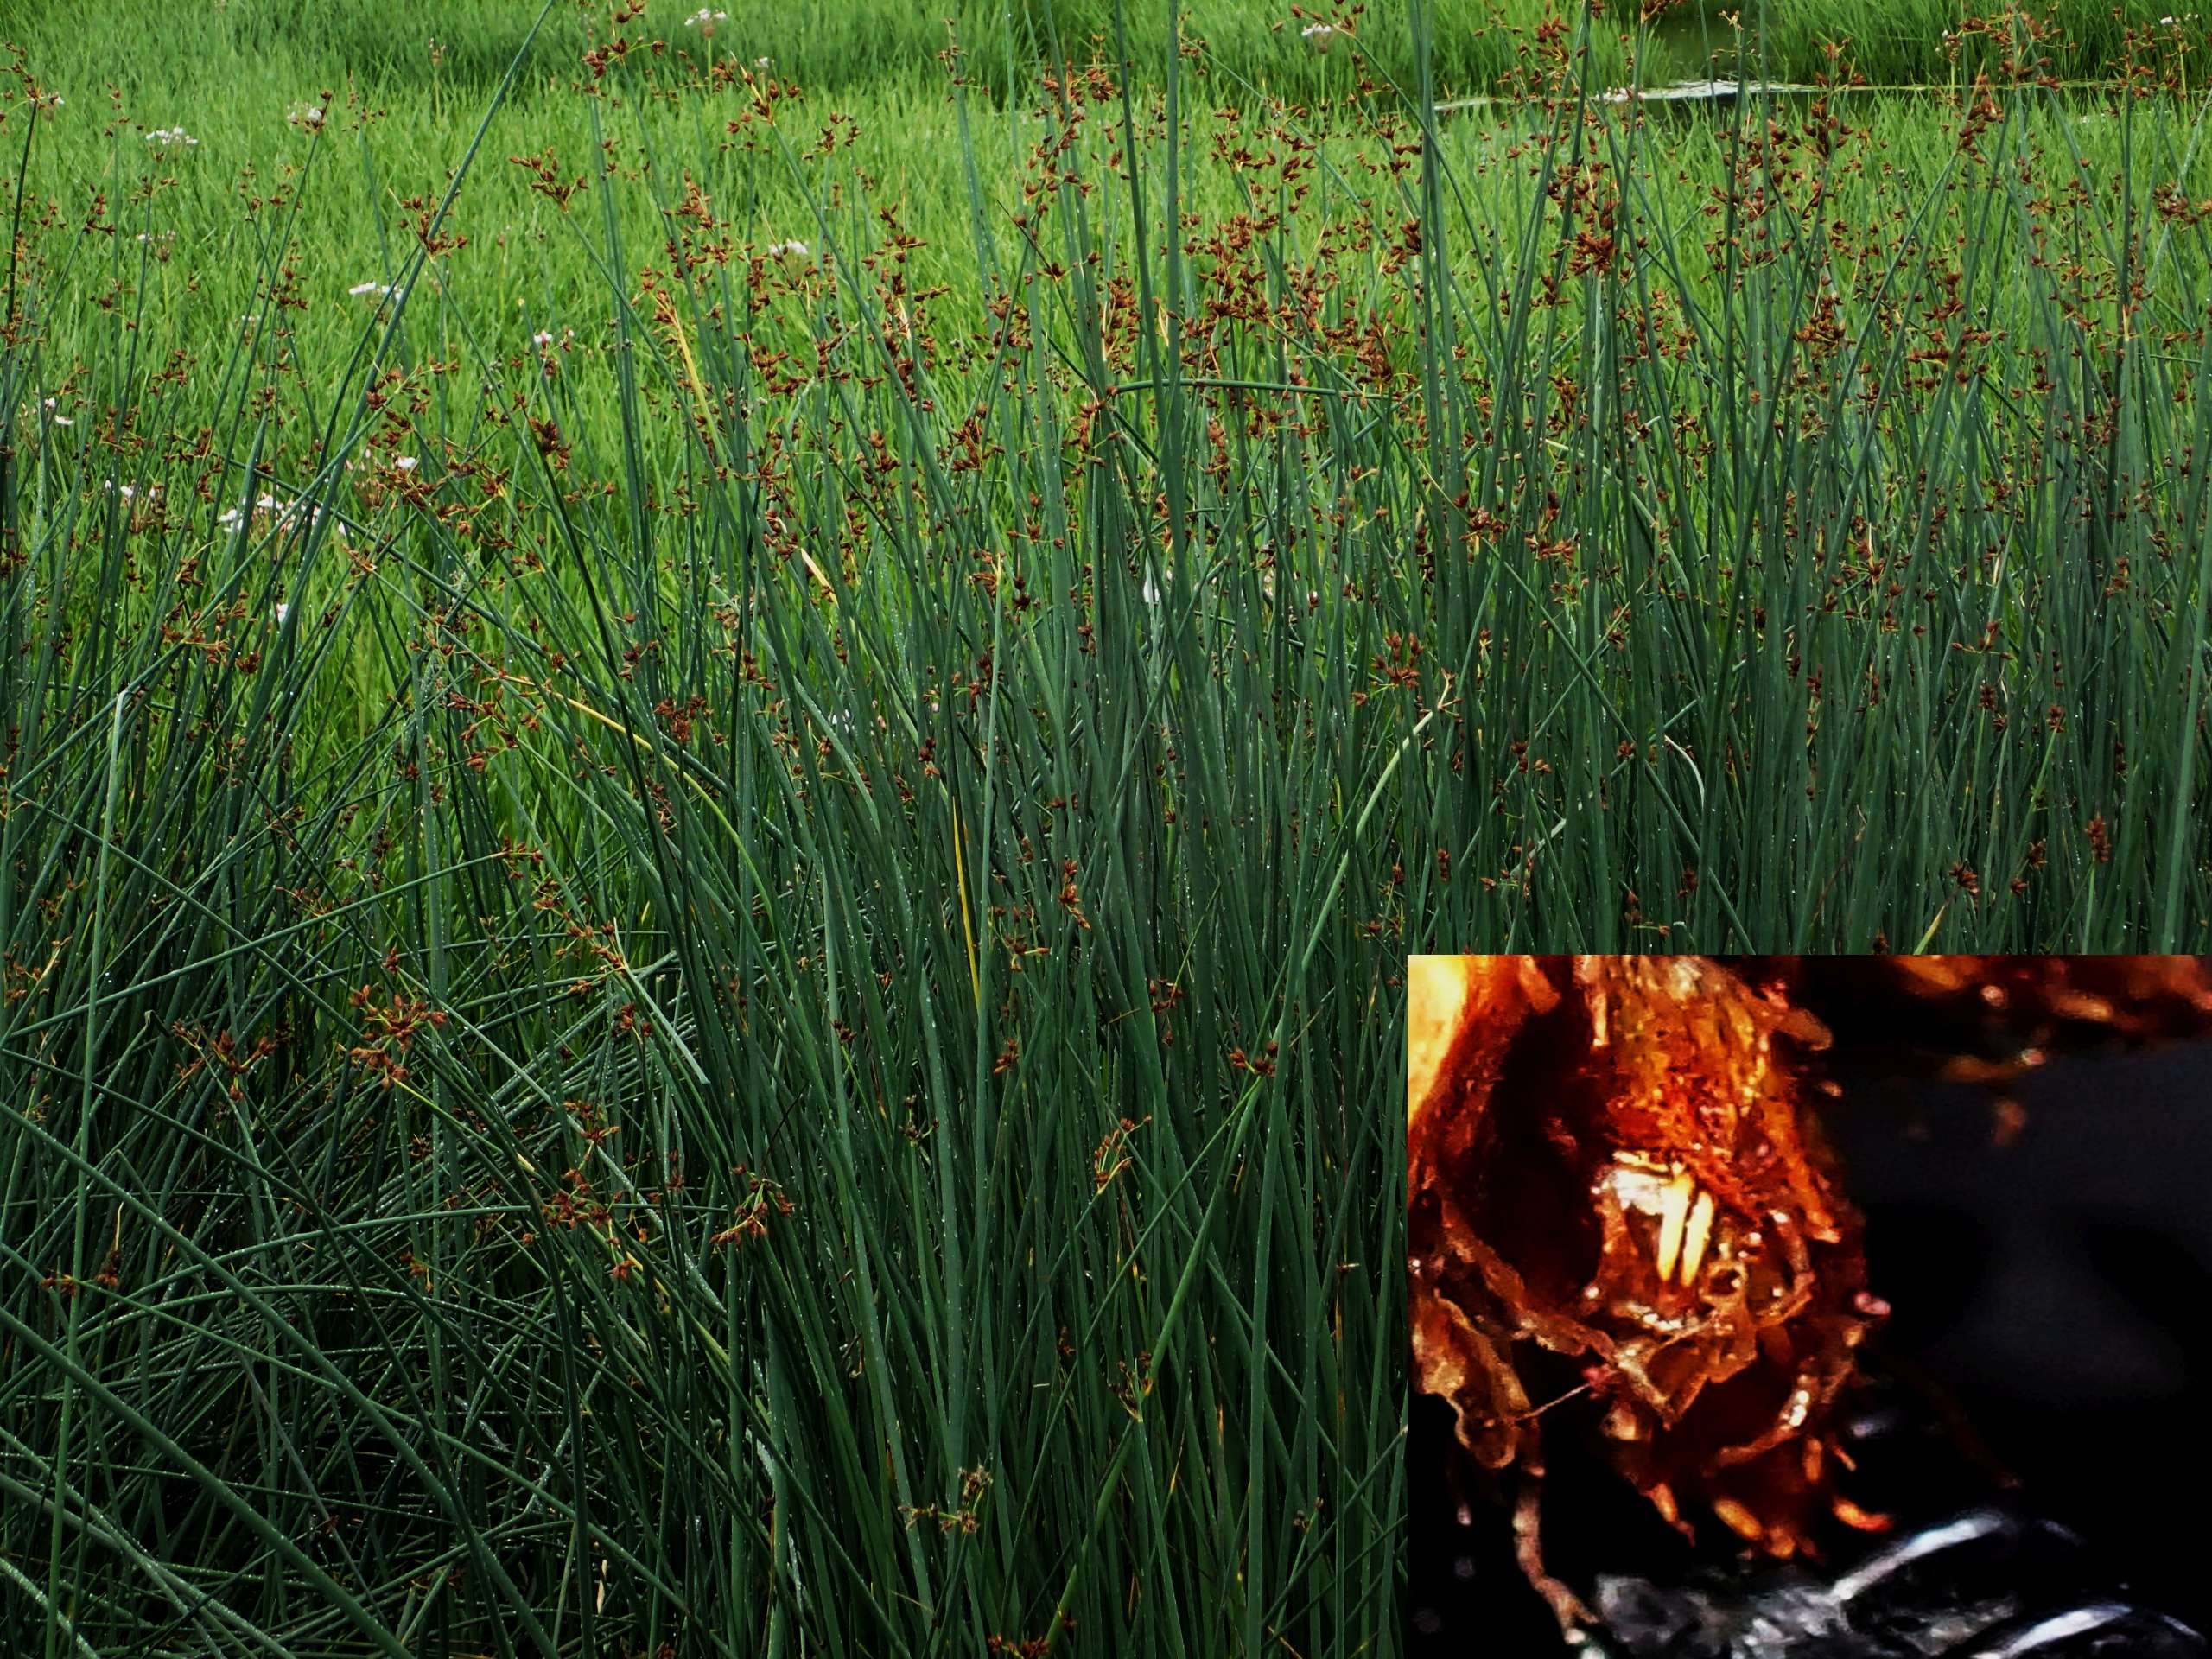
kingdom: Plantae
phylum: Tracheophyta
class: Liliopsida
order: Poales
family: Cyperaceae
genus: Schoenoplectus
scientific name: Schoenoplectus tabernaemontani
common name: Blågrøn kogleaks
